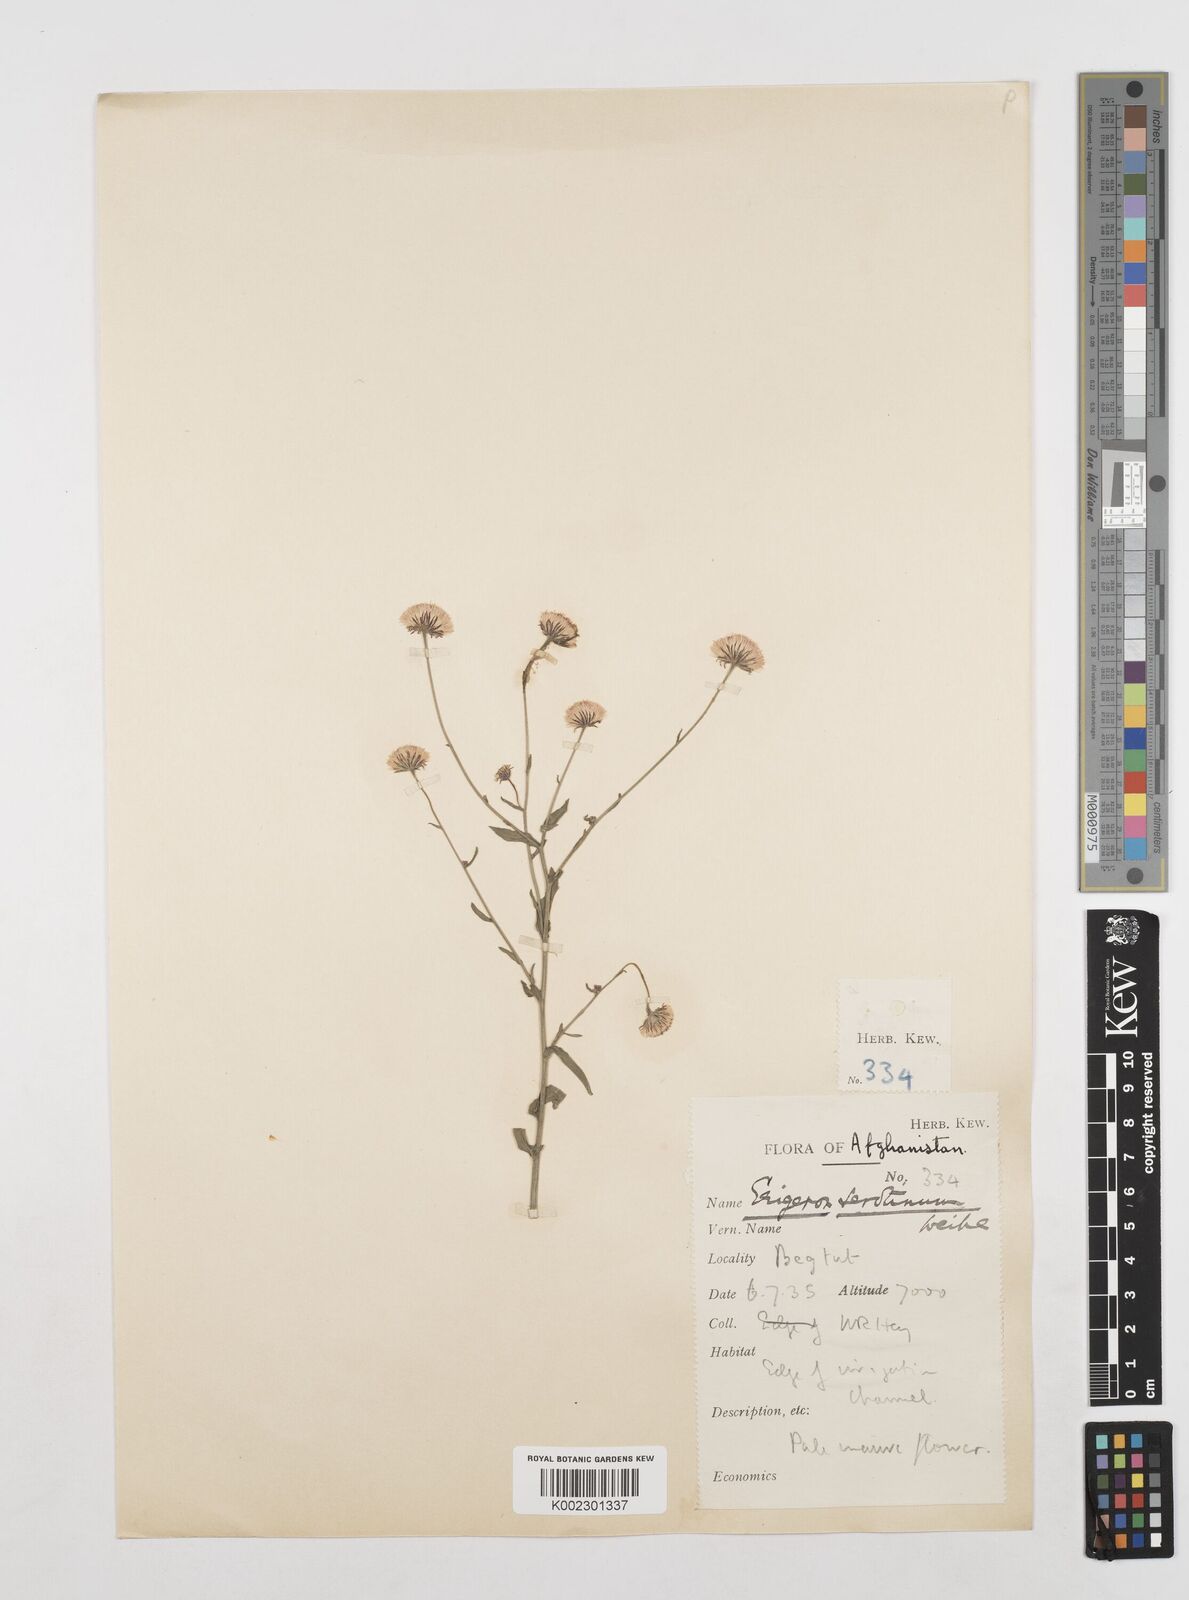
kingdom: Plantae
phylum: Tracheophyta
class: Magnoliopsida
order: Asterales
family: Asteraceae
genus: Erigeron
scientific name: Erigeron muralis
